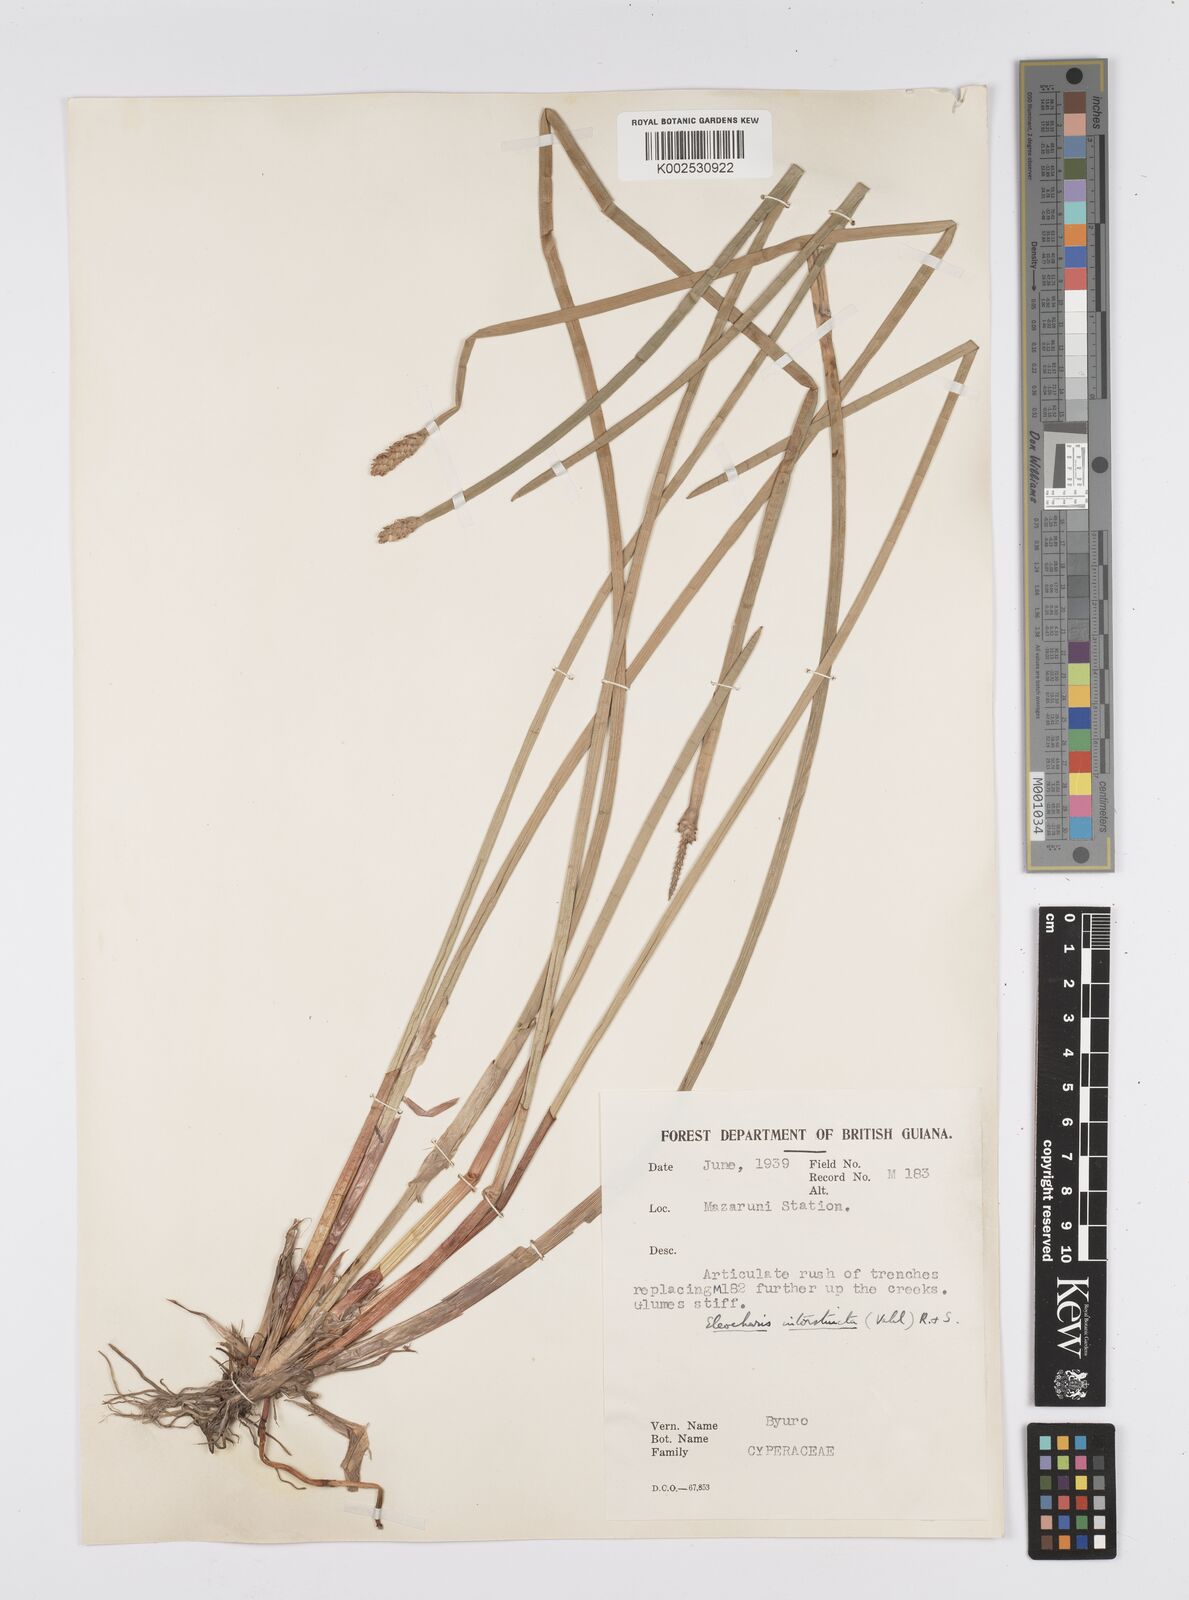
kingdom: Plantae
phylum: Tracheophyta
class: Liliopsida
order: Poales
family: Cyperaceae
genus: Eleocharis
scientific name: Eleocharis interstincta
